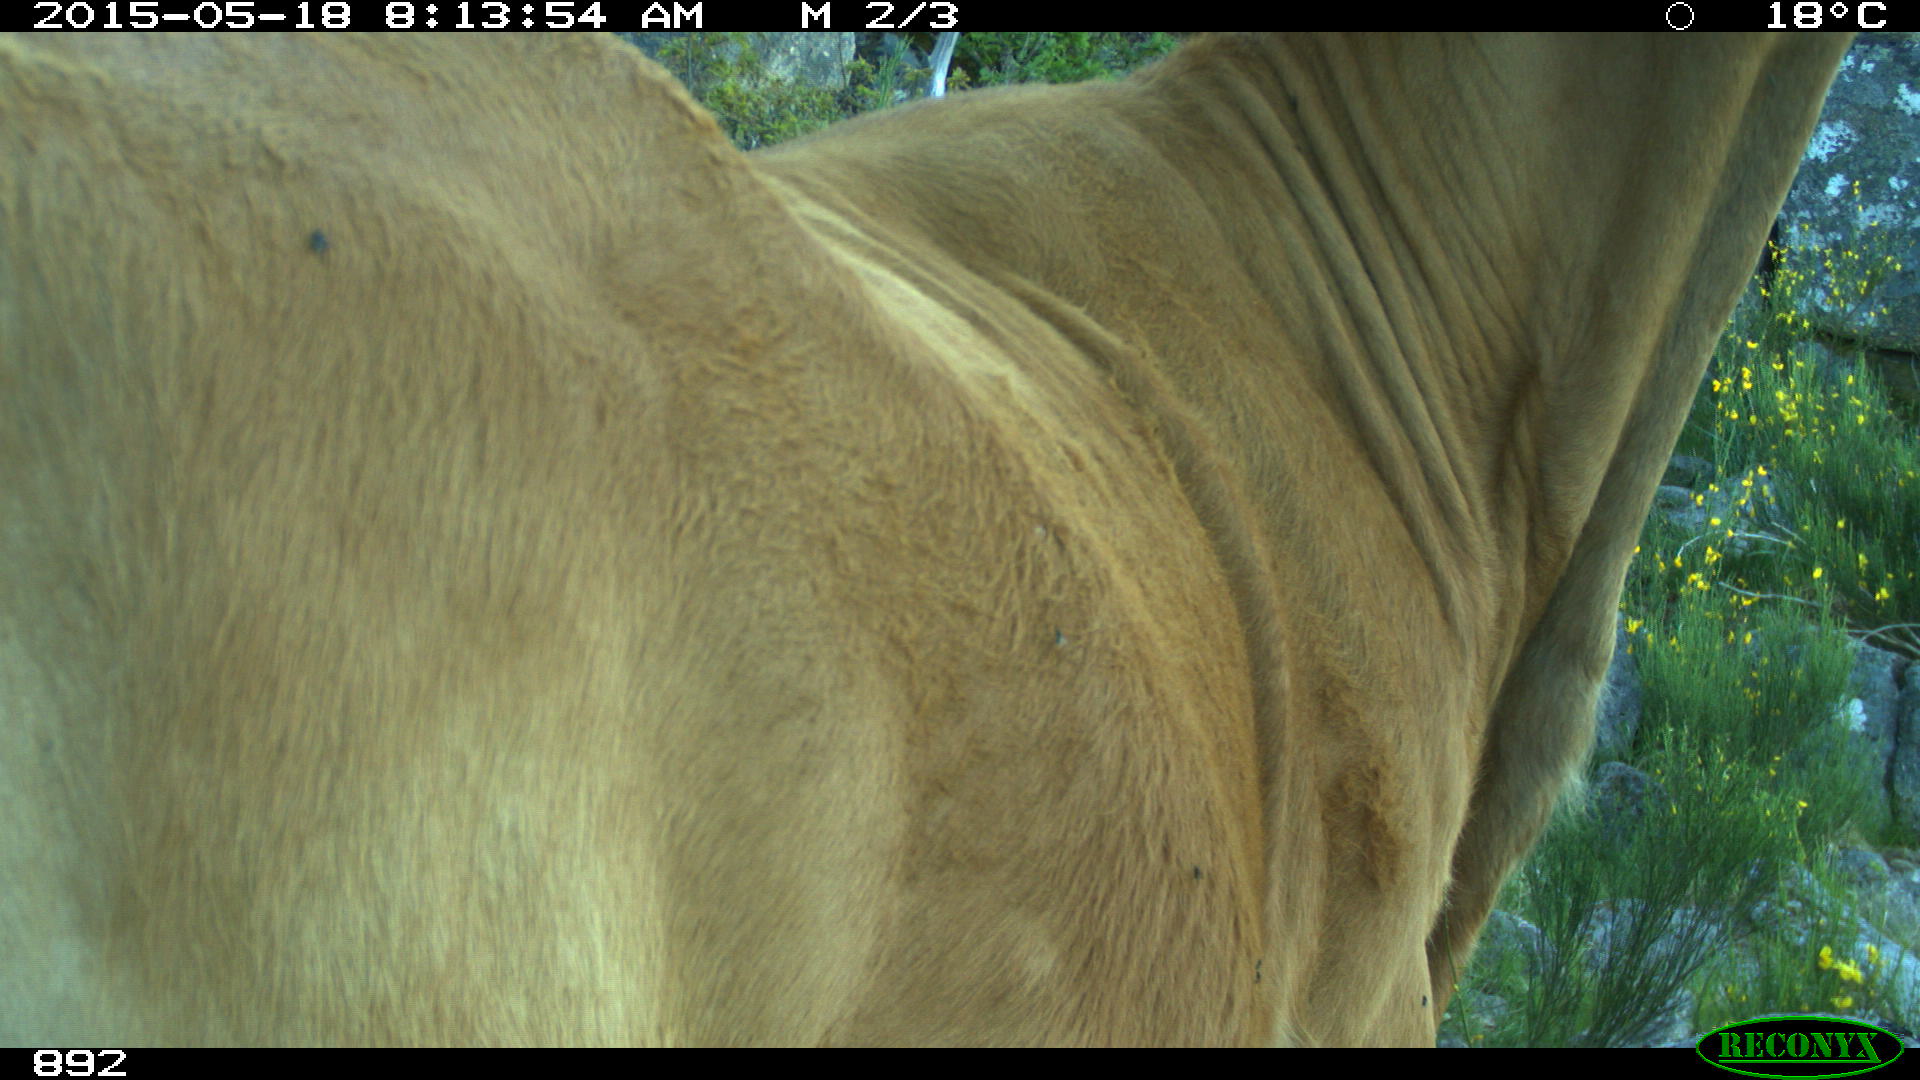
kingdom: Animalia
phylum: Chordata
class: Mammalia
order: Artiodactyla
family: Bovidae
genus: Bos
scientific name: Bos taurus
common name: Domesticated cattle
